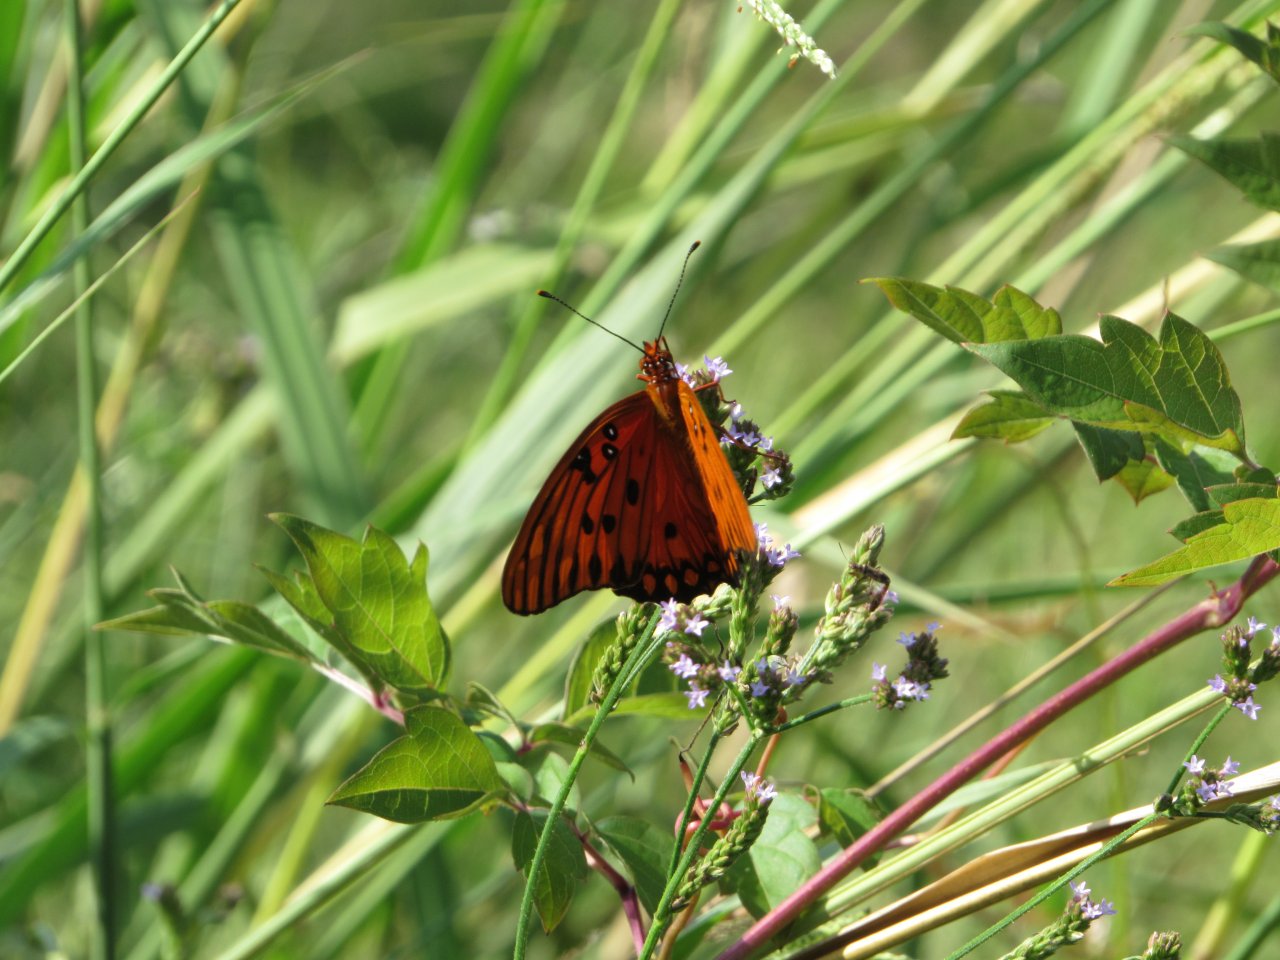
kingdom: Animalia
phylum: Arthropoda
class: Insecta
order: Lepidoptera
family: Nymphalidae
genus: Dione
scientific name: Dione vanillae
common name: Gulf Fritillary
